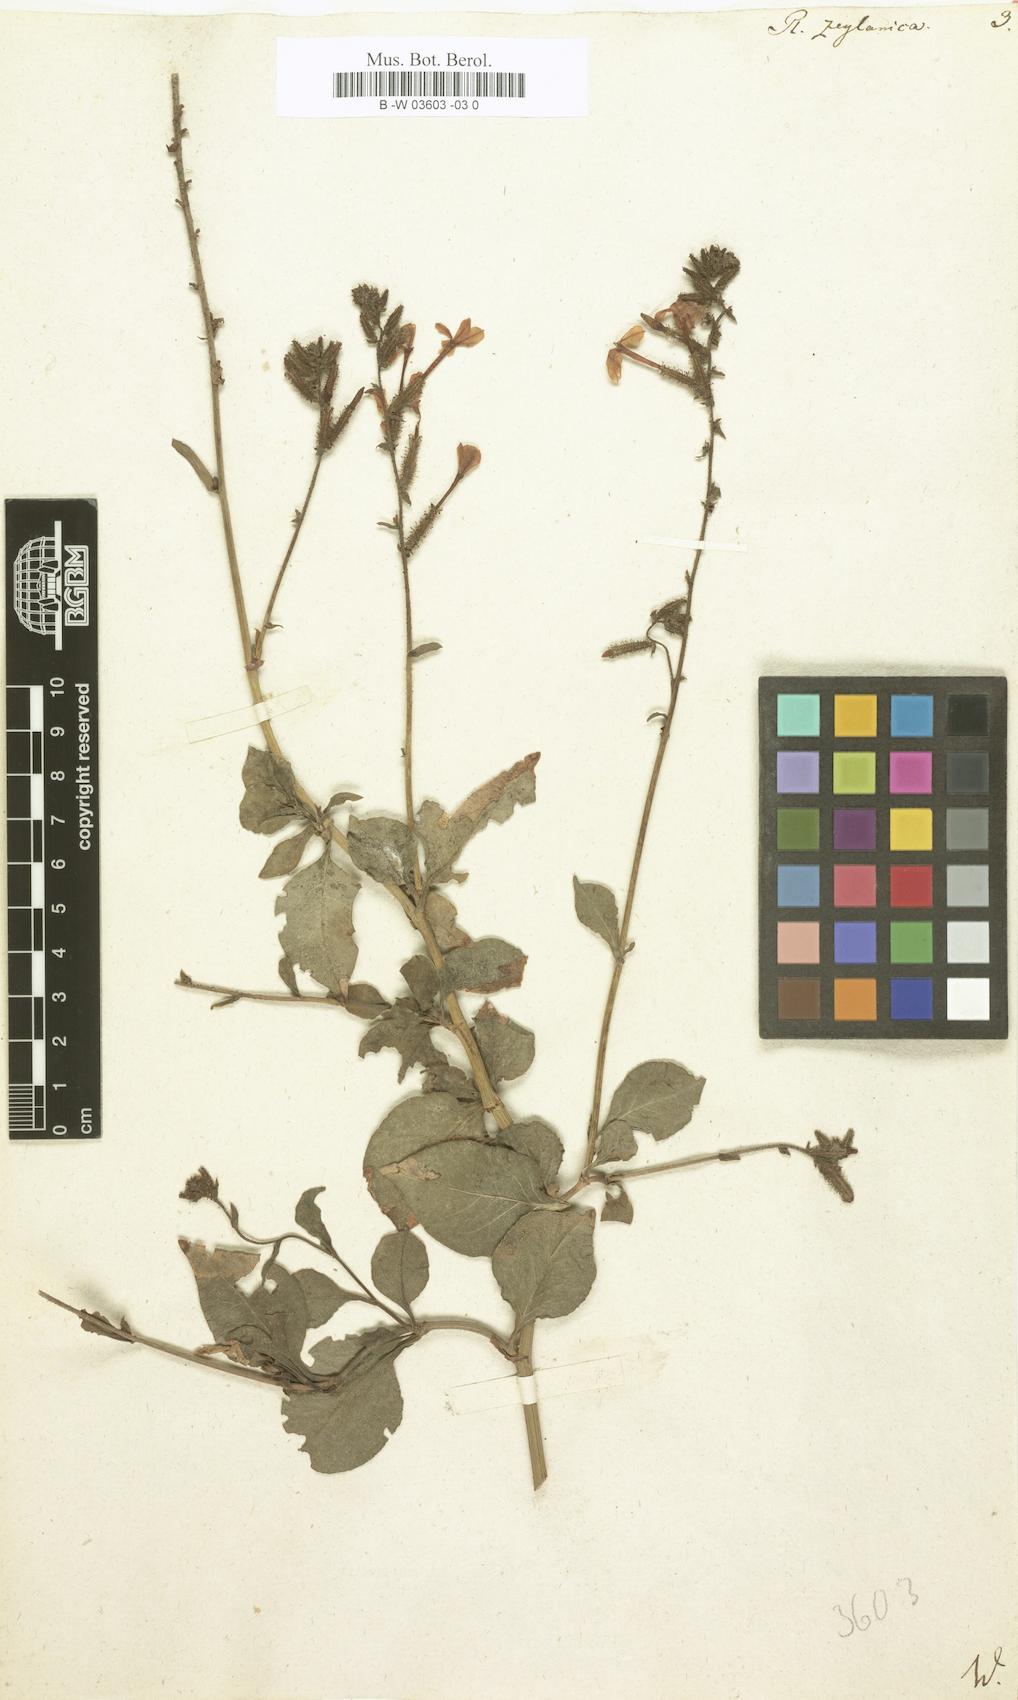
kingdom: Plantae
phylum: Tracheophyta
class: Magnoliopsida
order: Caryophyllales
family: Plumbaginaceae
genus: Plumbago
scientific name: Plumbago zeylanica
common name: Doctorbush
